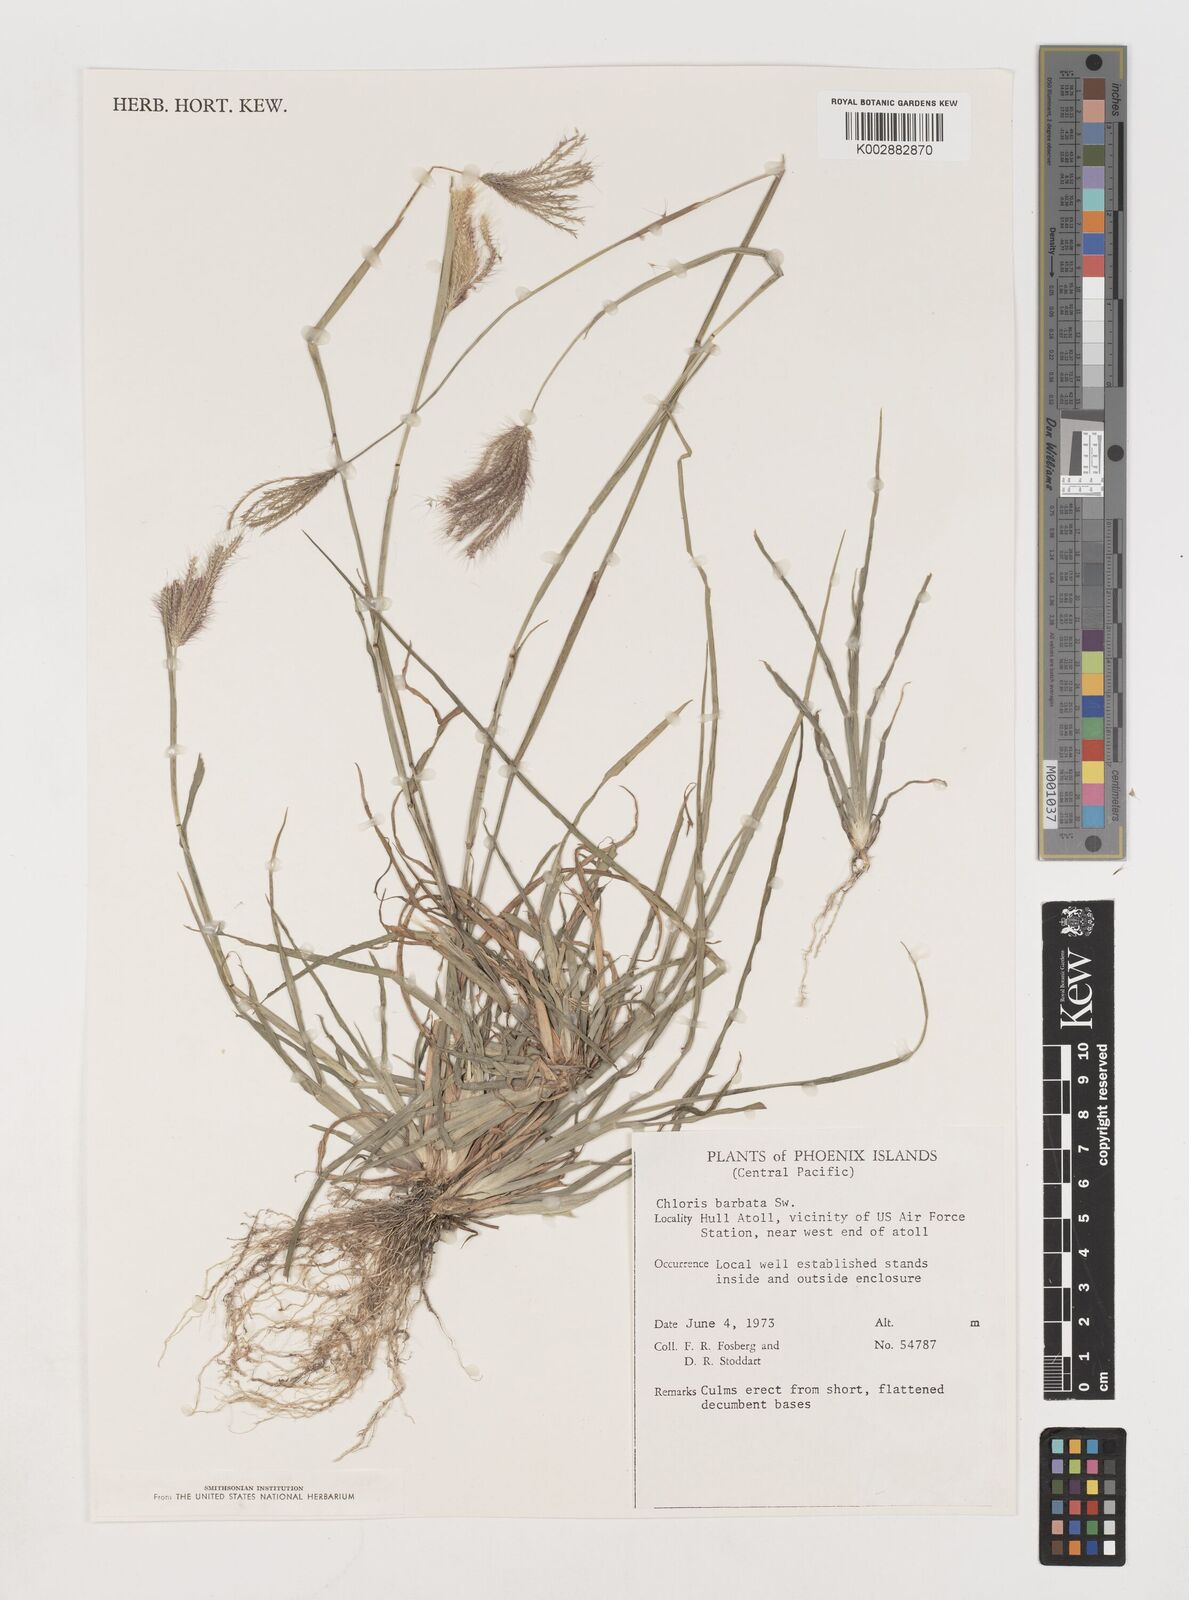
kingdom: Plantae
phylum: Tracheophyta
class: Liliopsida
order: Poales
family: Poaceae
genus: Chloris
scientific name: Chloris barbata
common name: Swollen fingergrass
